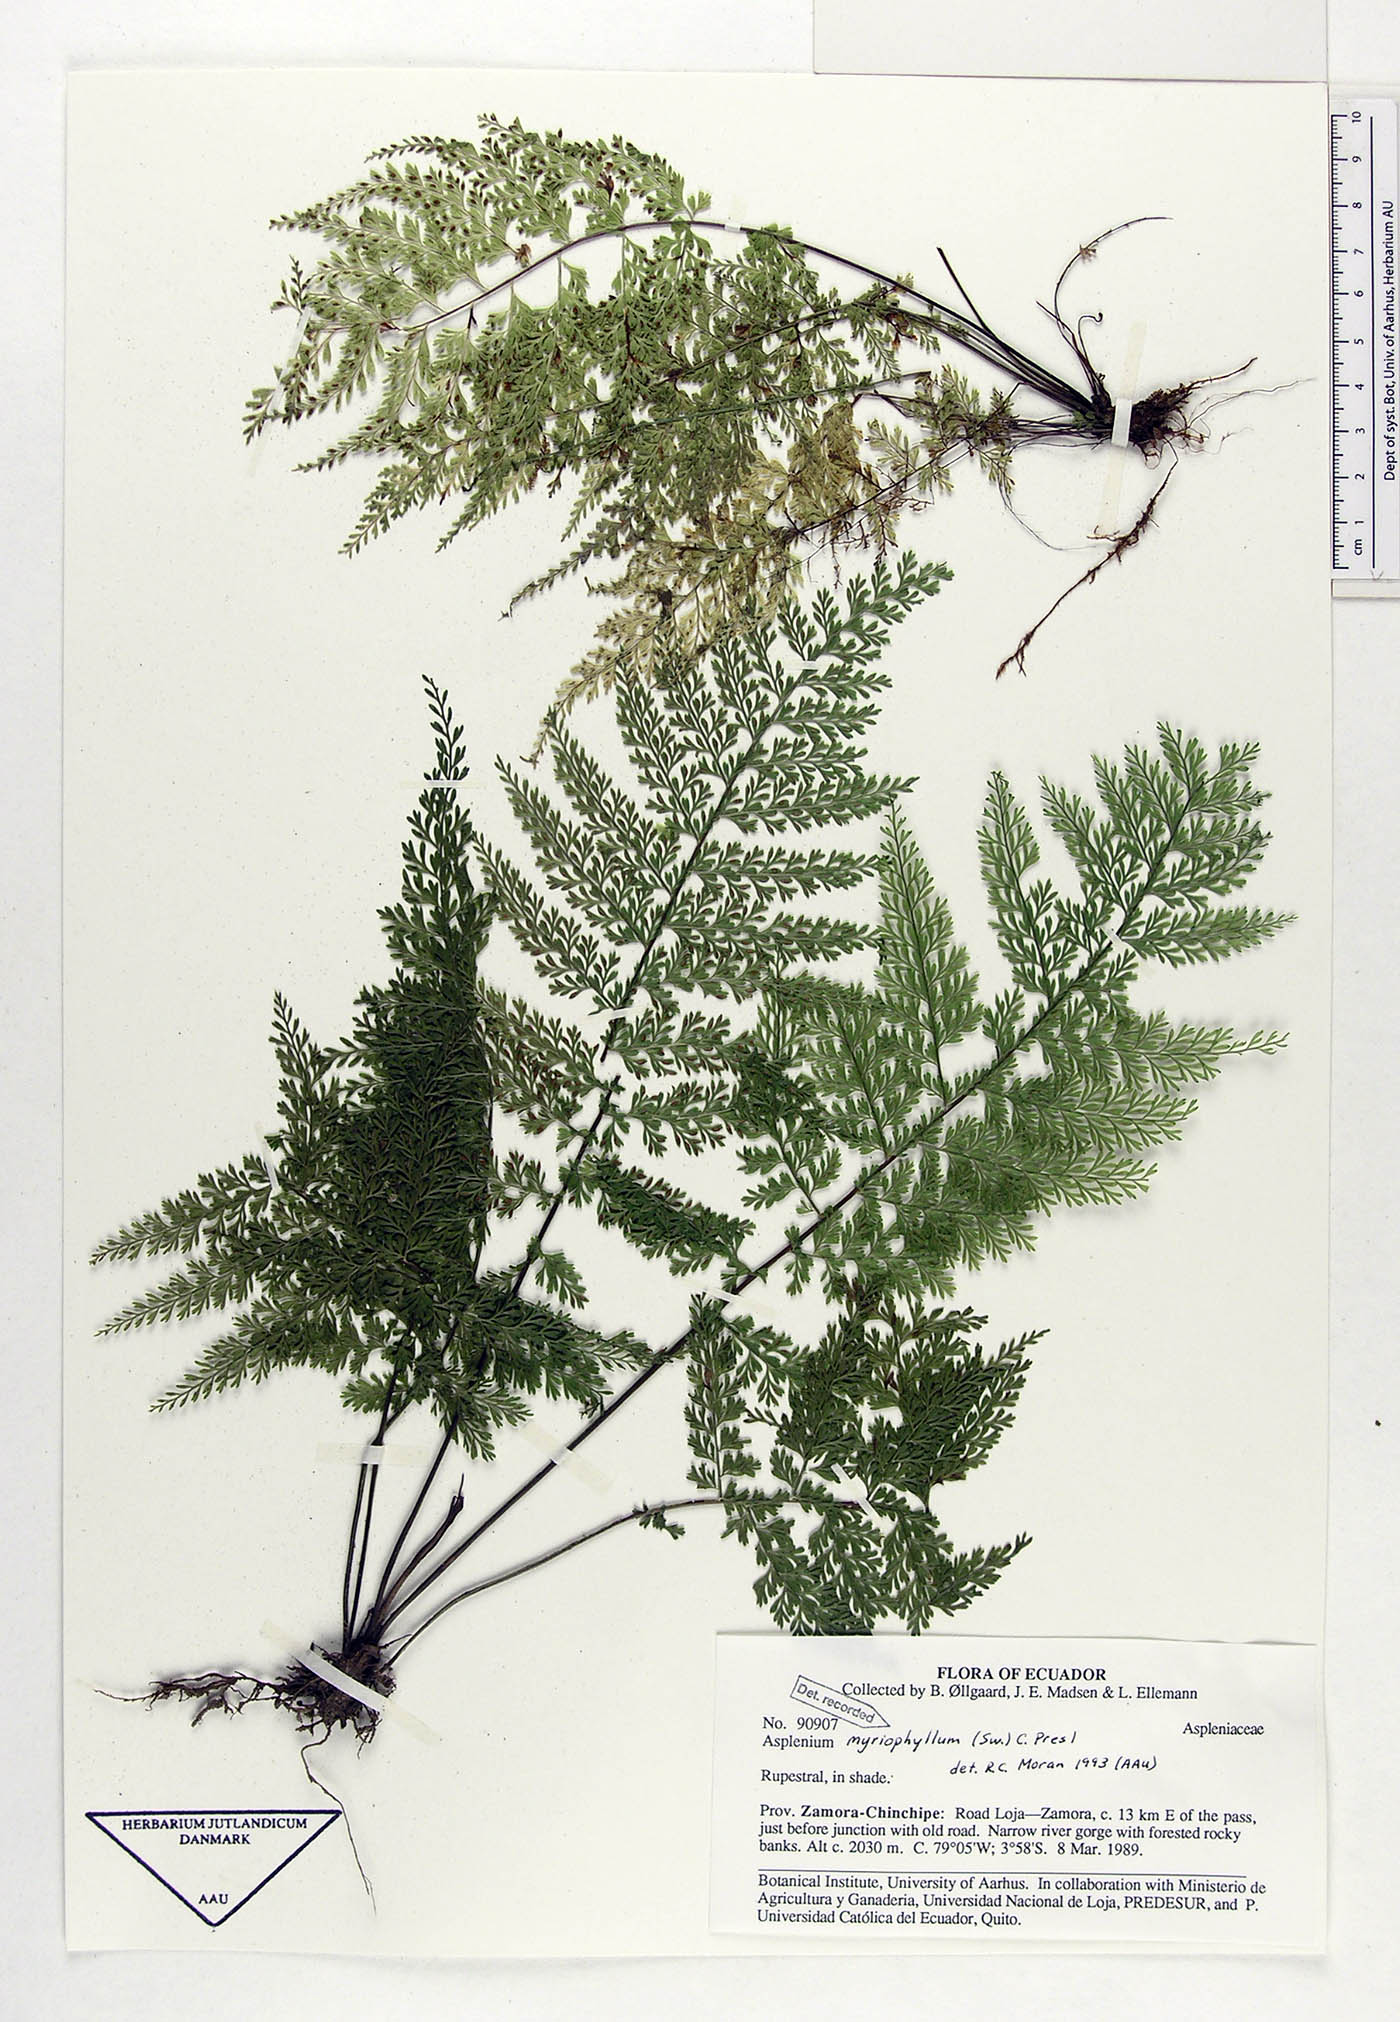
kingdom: Plantae
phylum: Tracheophyta
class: Polypodiopsida
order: Polypodiales
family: Aspleniaceae
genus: Asplenium
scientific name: Asplenium myriophyllum
